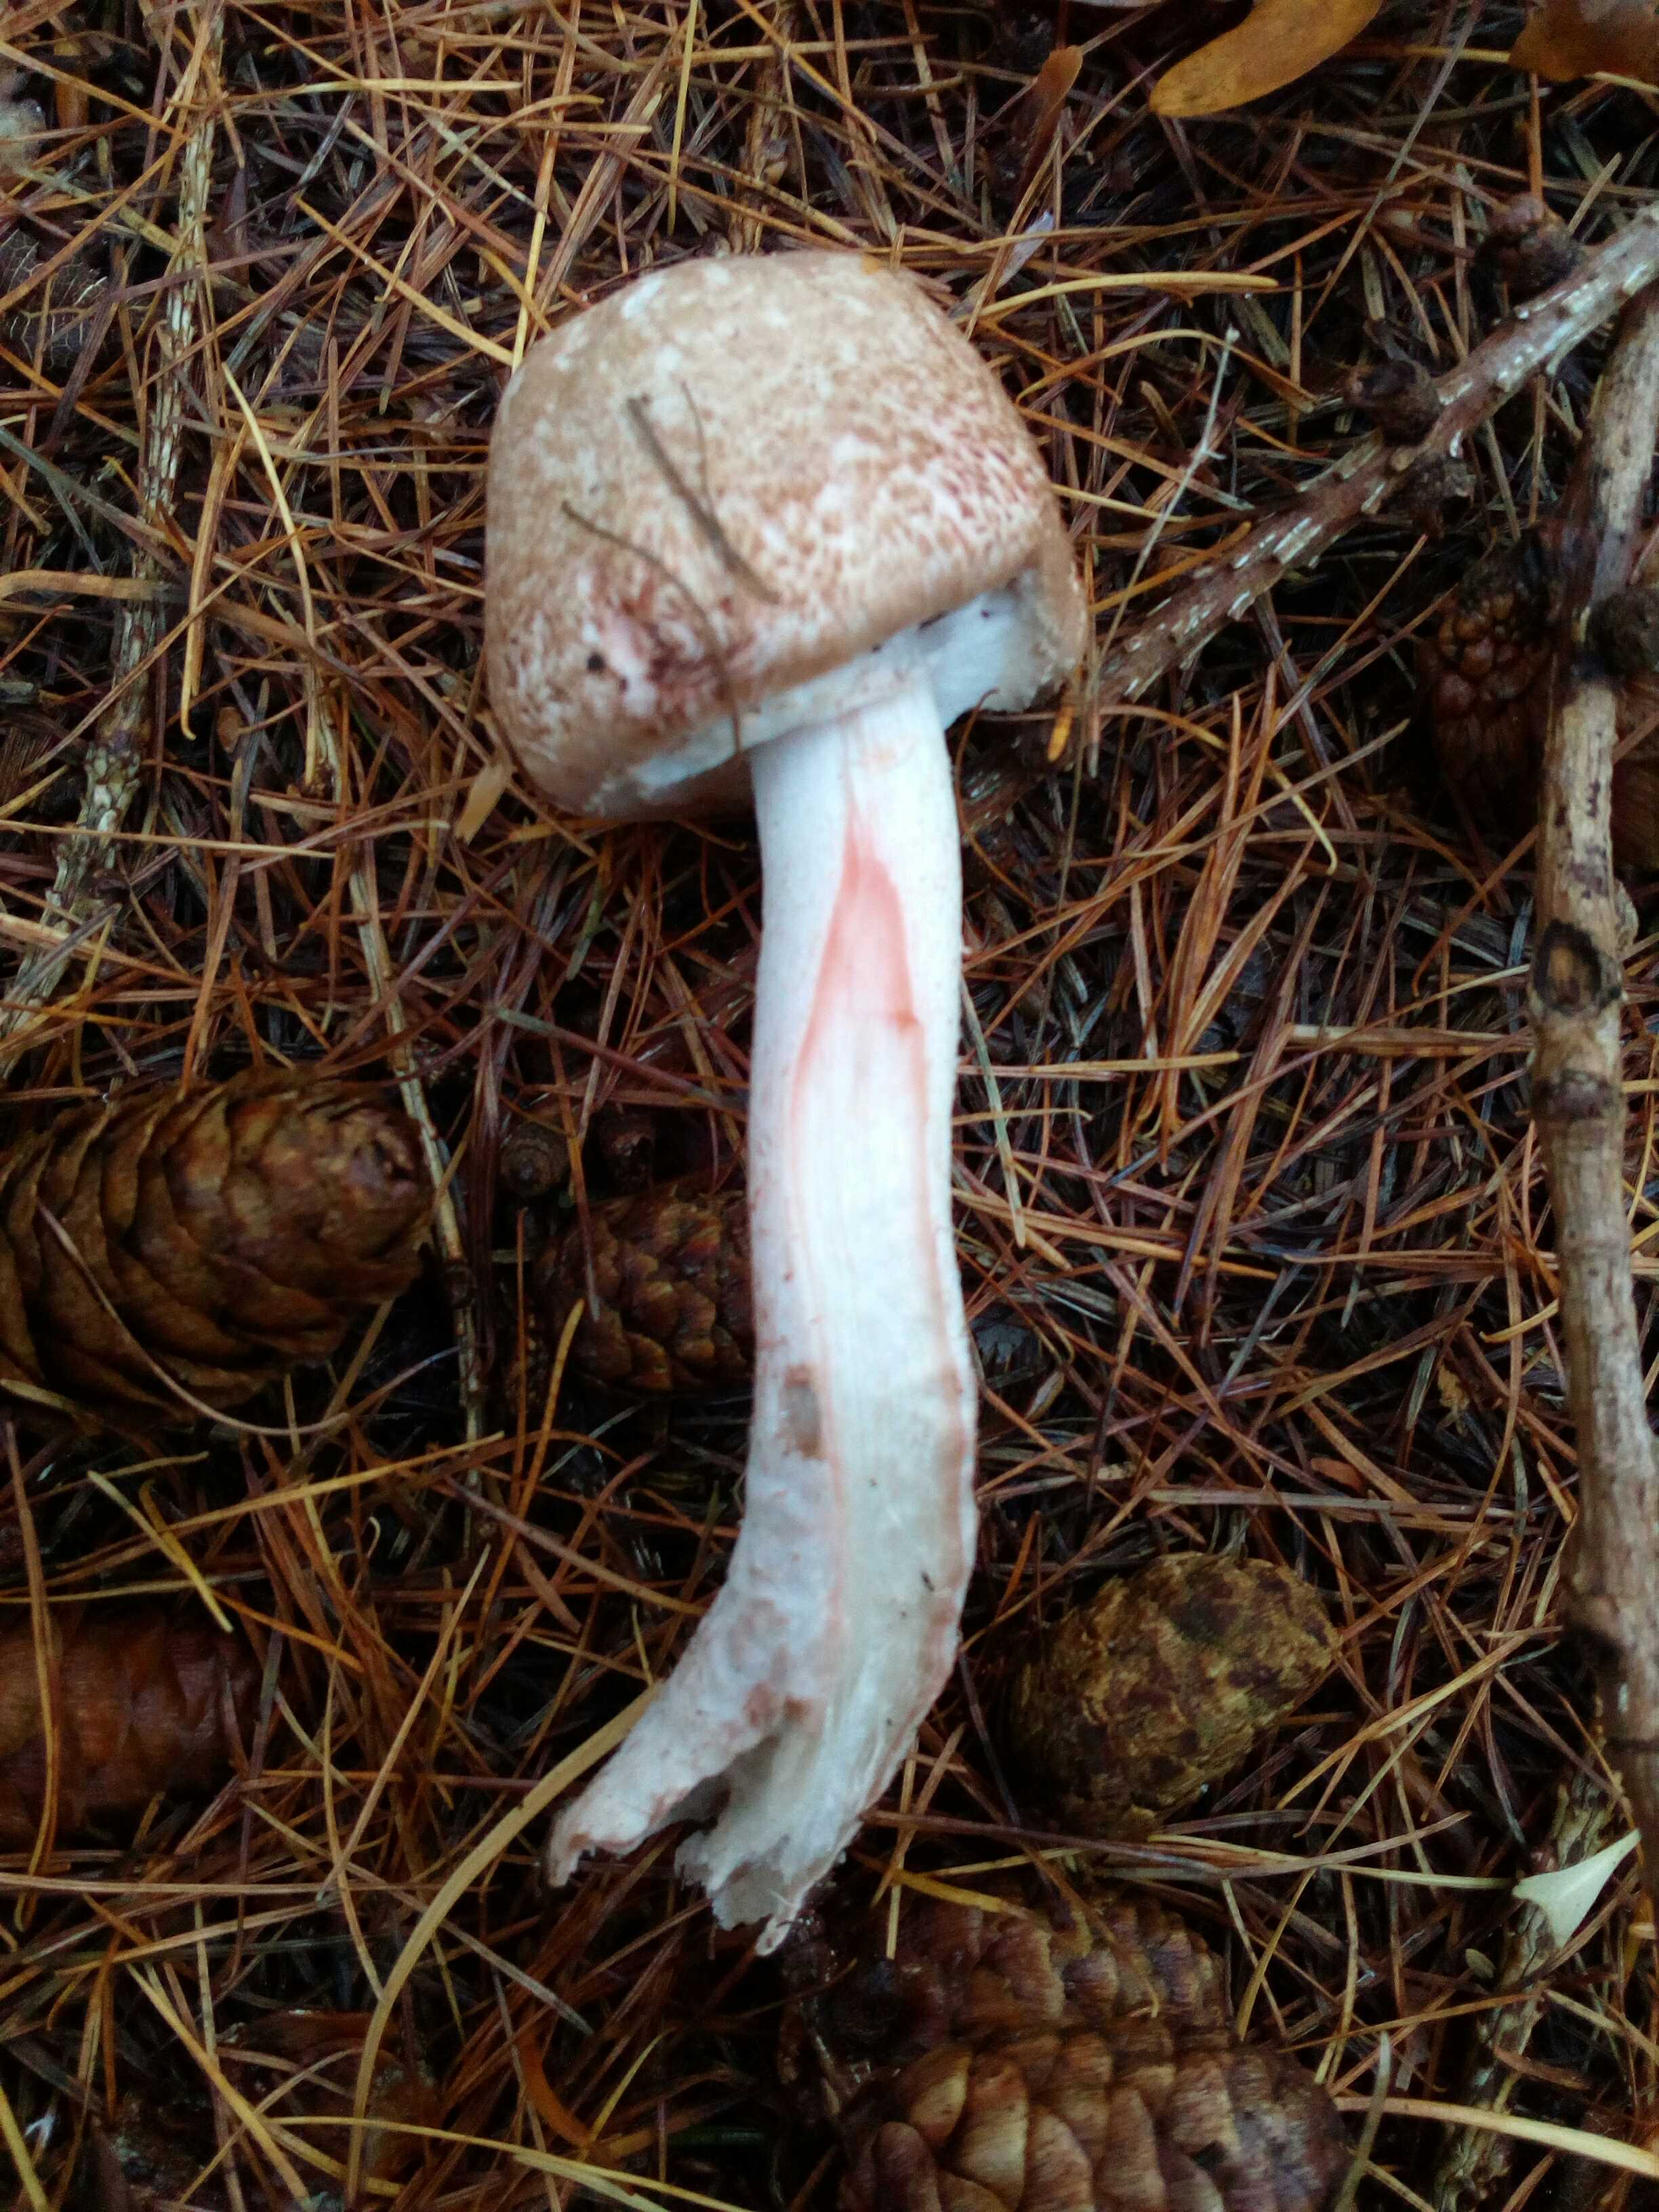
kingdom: Fungi
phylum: Basidiomycota
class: Agaricomycetes
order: Agaricales
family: Agaricaceae
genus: Agaricus
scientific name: Agaricus sylvaticus
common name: lille blod-champignon
